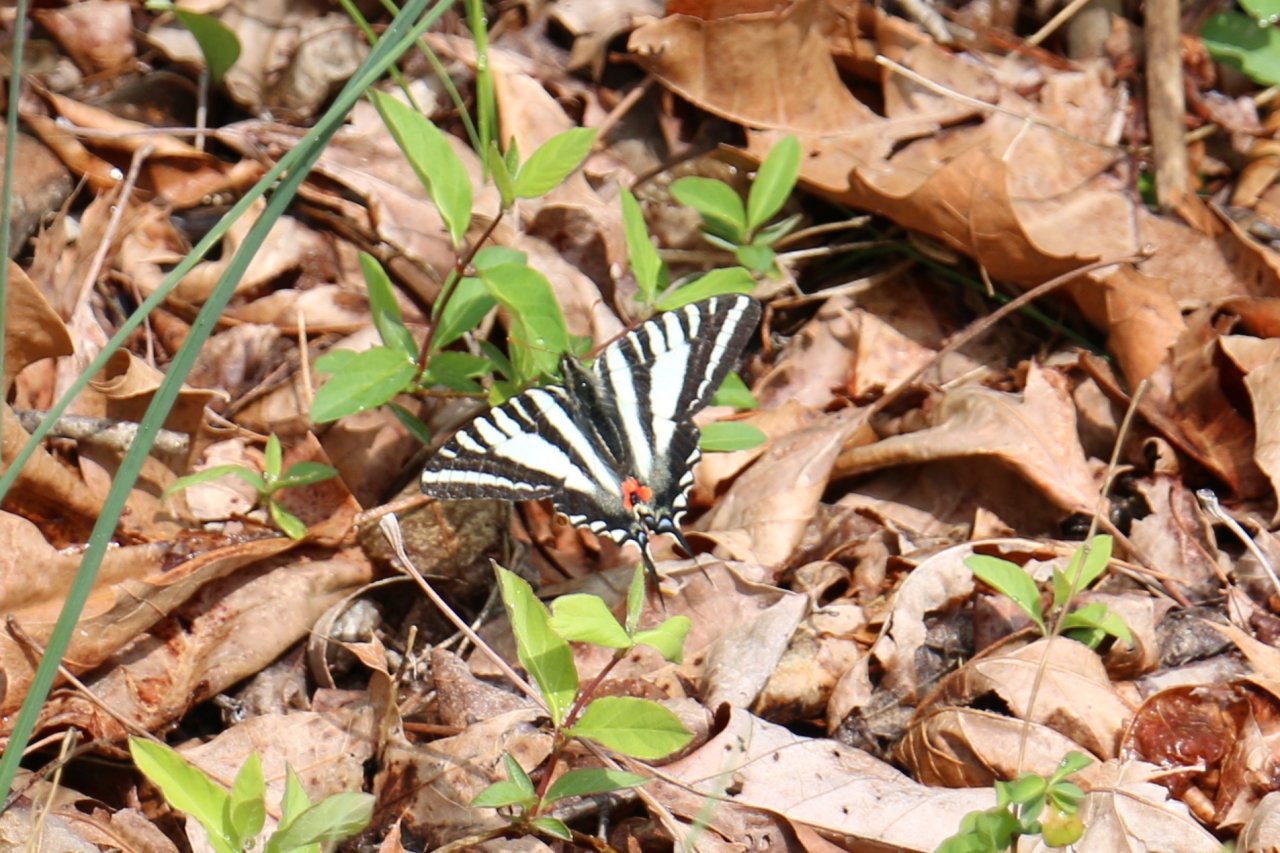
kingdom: Animalia
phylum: Arthropoda
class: Insecta
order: Lepidoptera
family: Papilionidae
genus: Protographium
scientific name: Protographium marcellus
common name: Zebra Swallowtail
